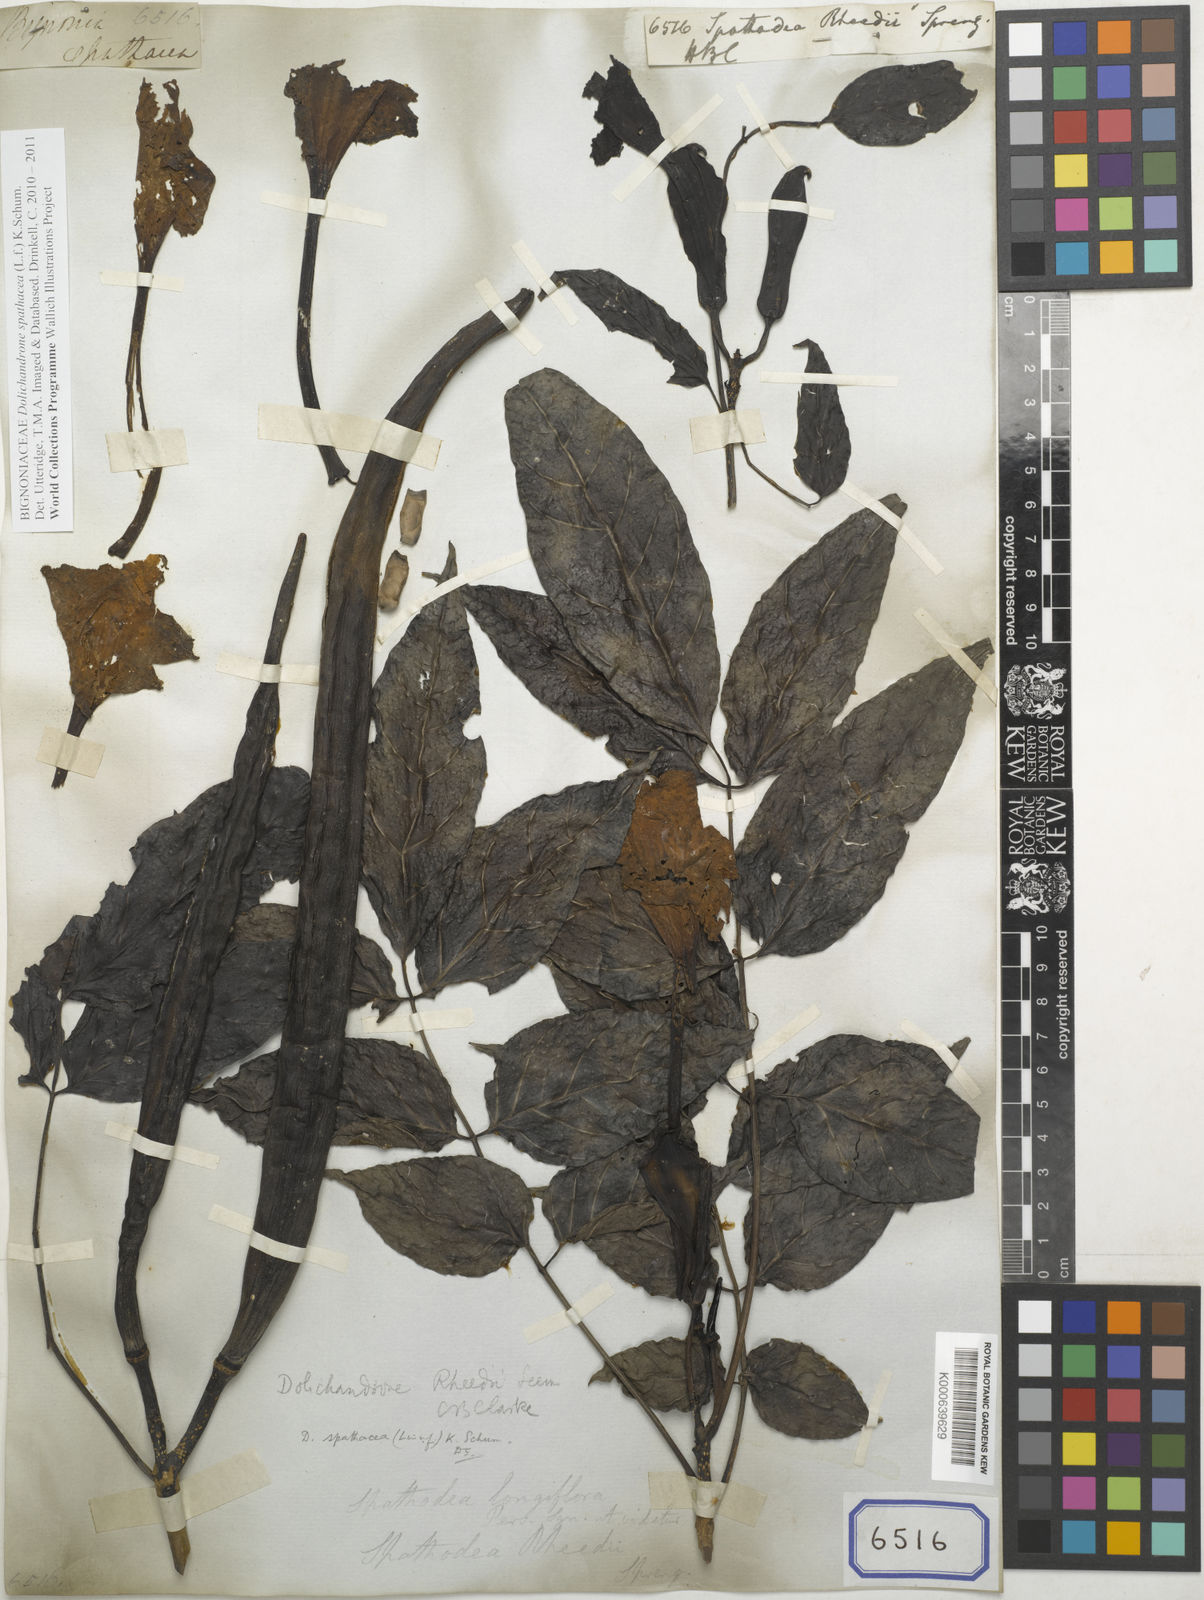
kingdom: Plantae
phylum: Tracheophyta
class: Magnoliopsida
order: Lamiales
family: Bignoniaceae
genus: Dolichandrone
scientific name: Dolichandrone spathacea
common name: Mangrove trumpet-tree
